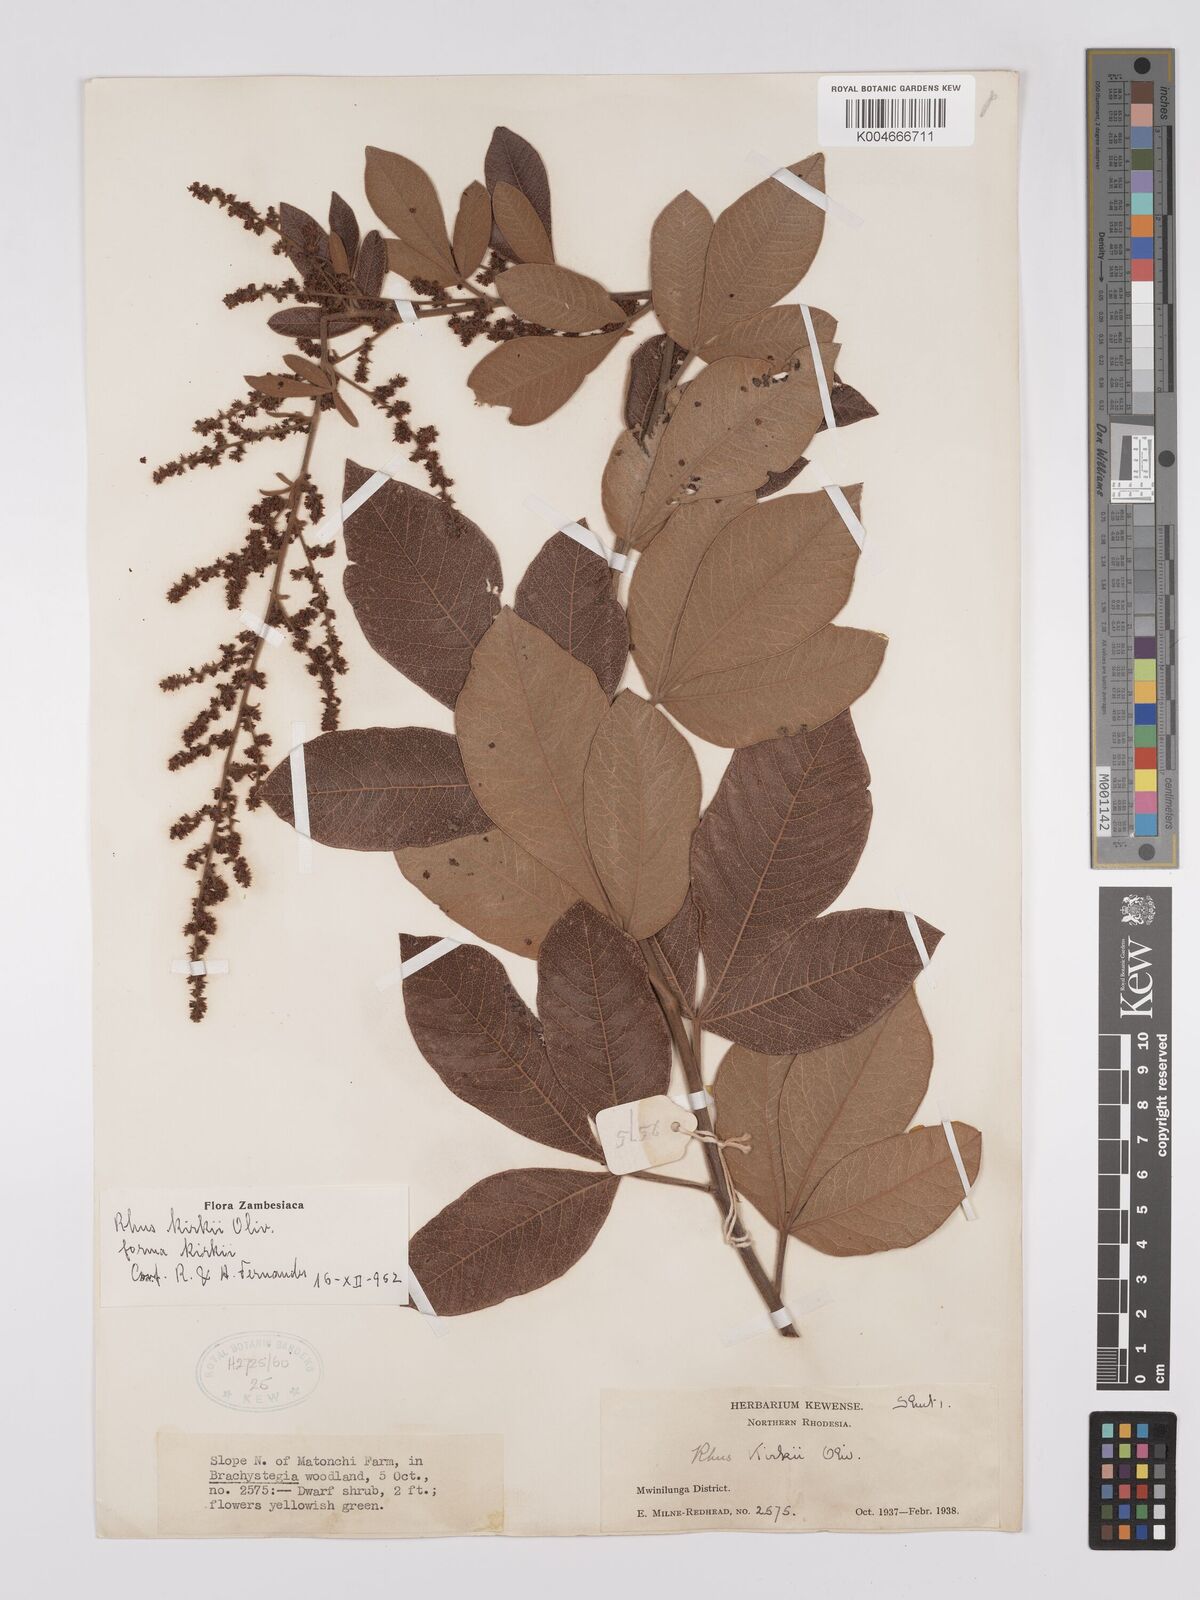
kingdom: Plantae
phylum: Tracheophyta
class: Magnoliopsida
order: Sapindales
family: Anacardiaceae
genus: Searsia
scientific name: Searsia kirkii
